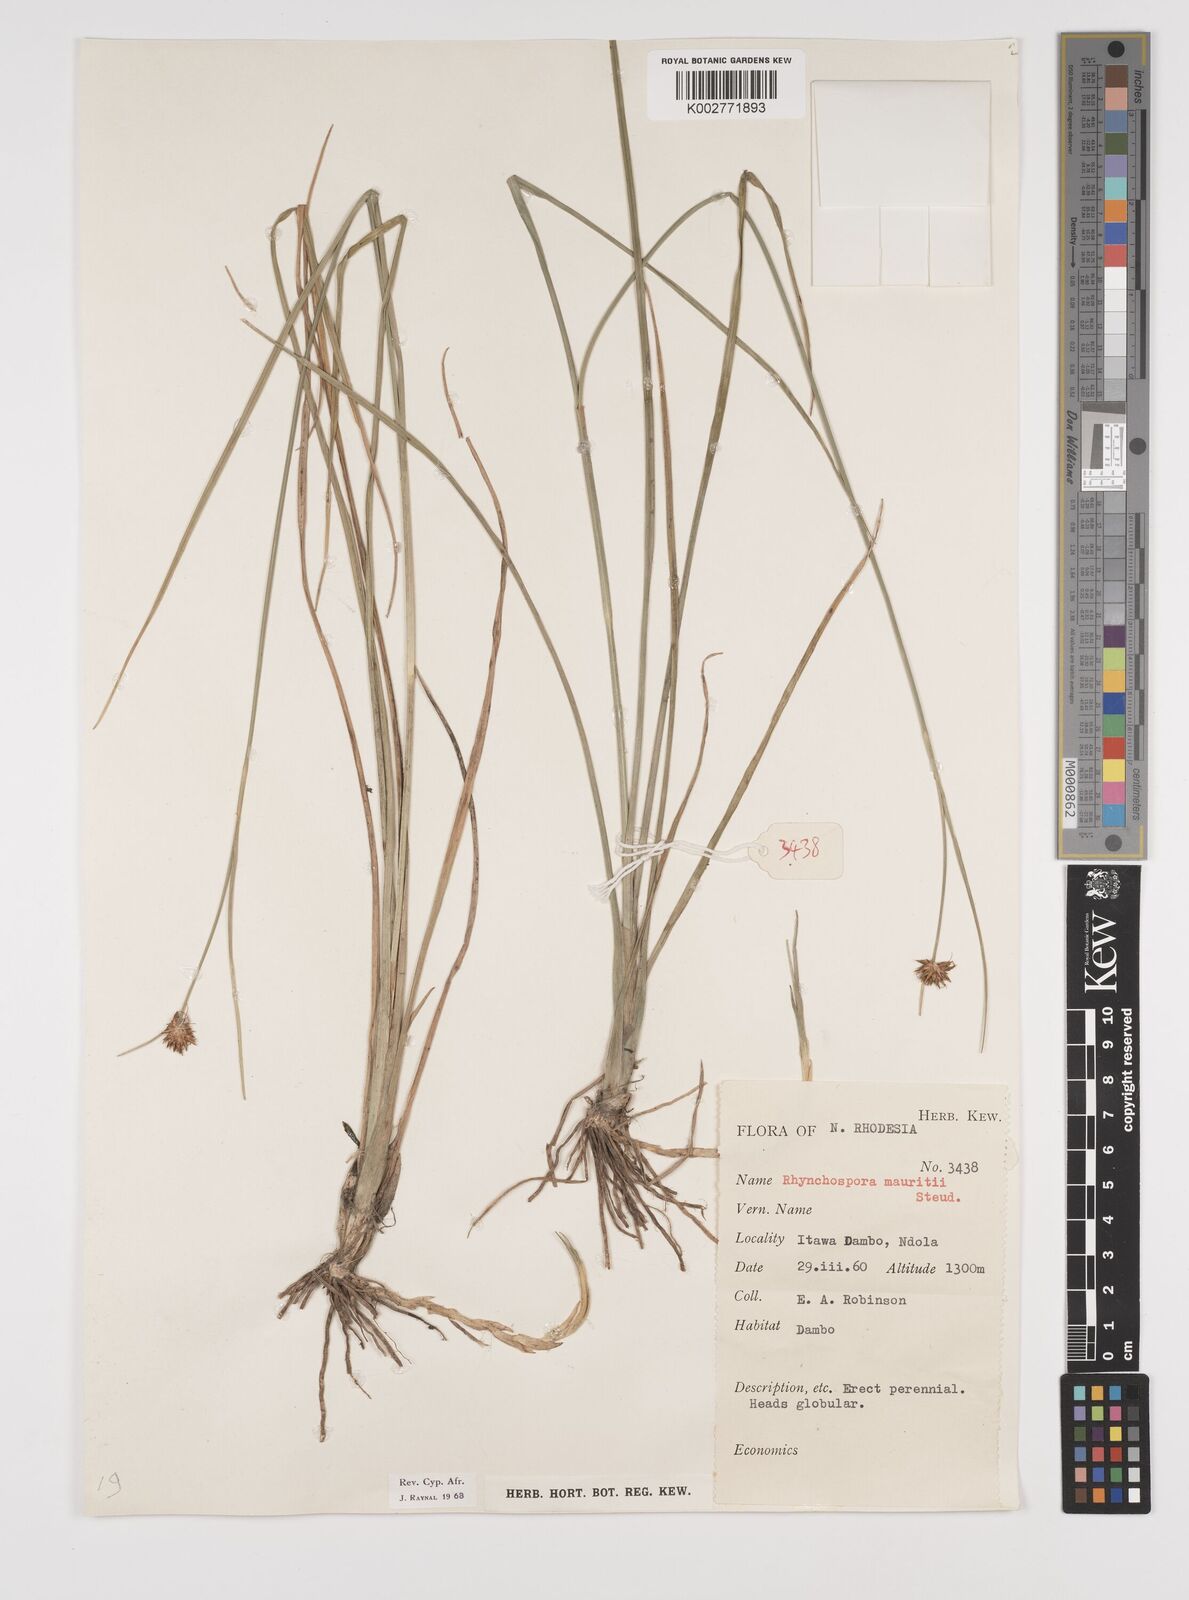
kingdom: Plantae
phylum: Tracheophyta
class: Liliopsida
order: Poales
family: Cyperaceae
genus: Rhynchospora
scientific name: Rhynchospora holoschoenoides
